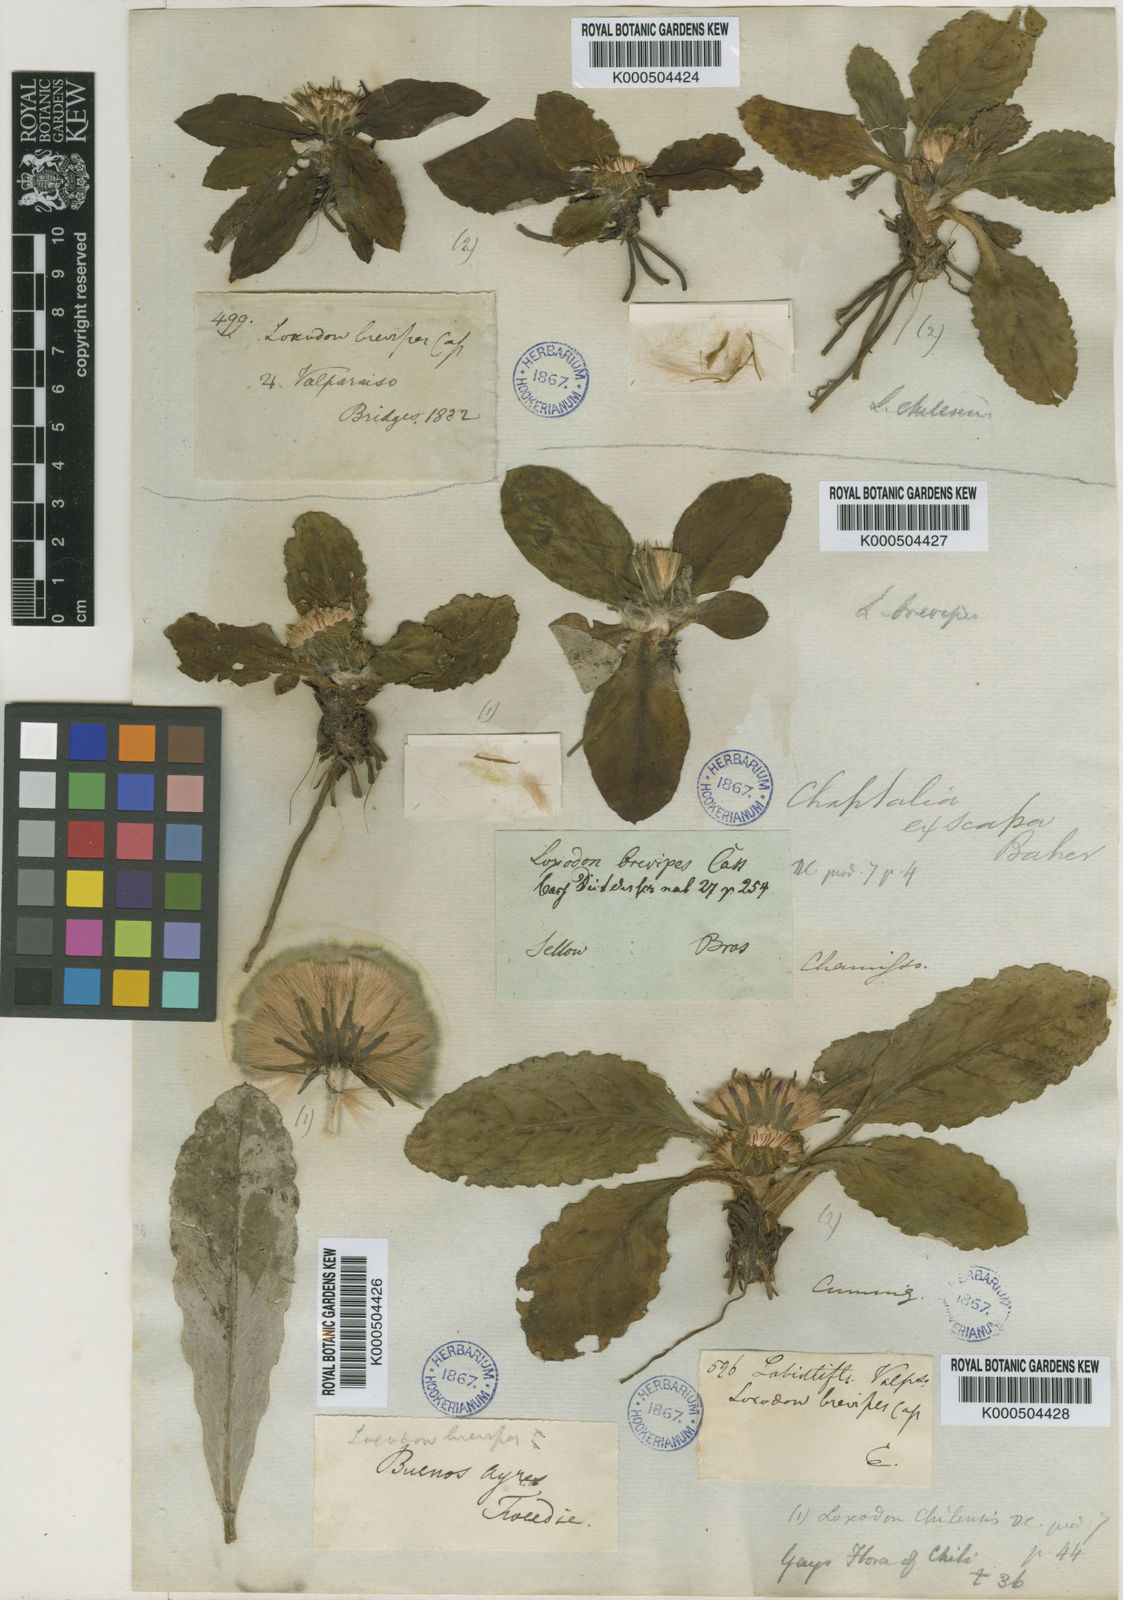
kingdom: Plantae
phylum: Tracheophyta
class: Magnoliopsida
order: Asterales
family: Asteraceae
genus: Chaptalia
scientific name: Chaptalia exscapa
